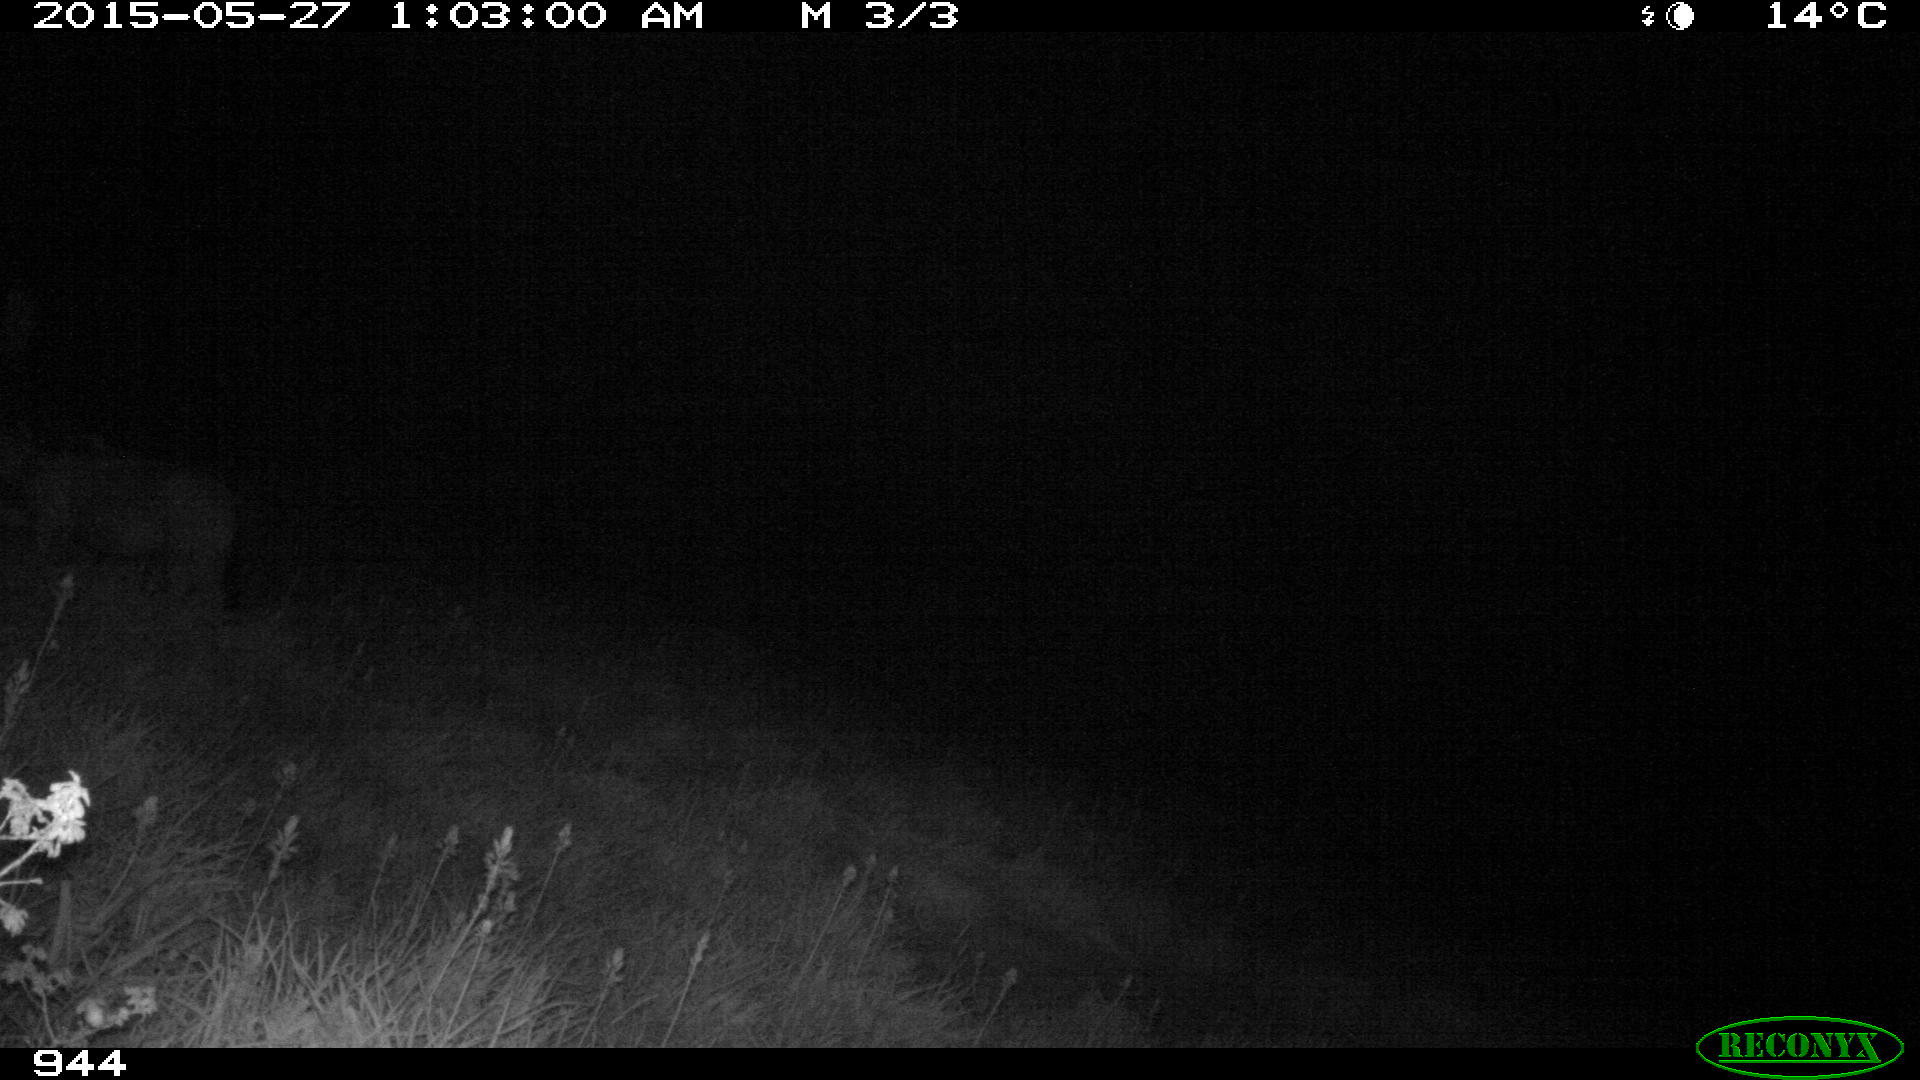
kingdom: Animalia
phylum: Chordata
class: Mammalia
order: Perissodactyla
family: Equidae
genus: Equus
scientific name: Equus caballus
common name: Horse
